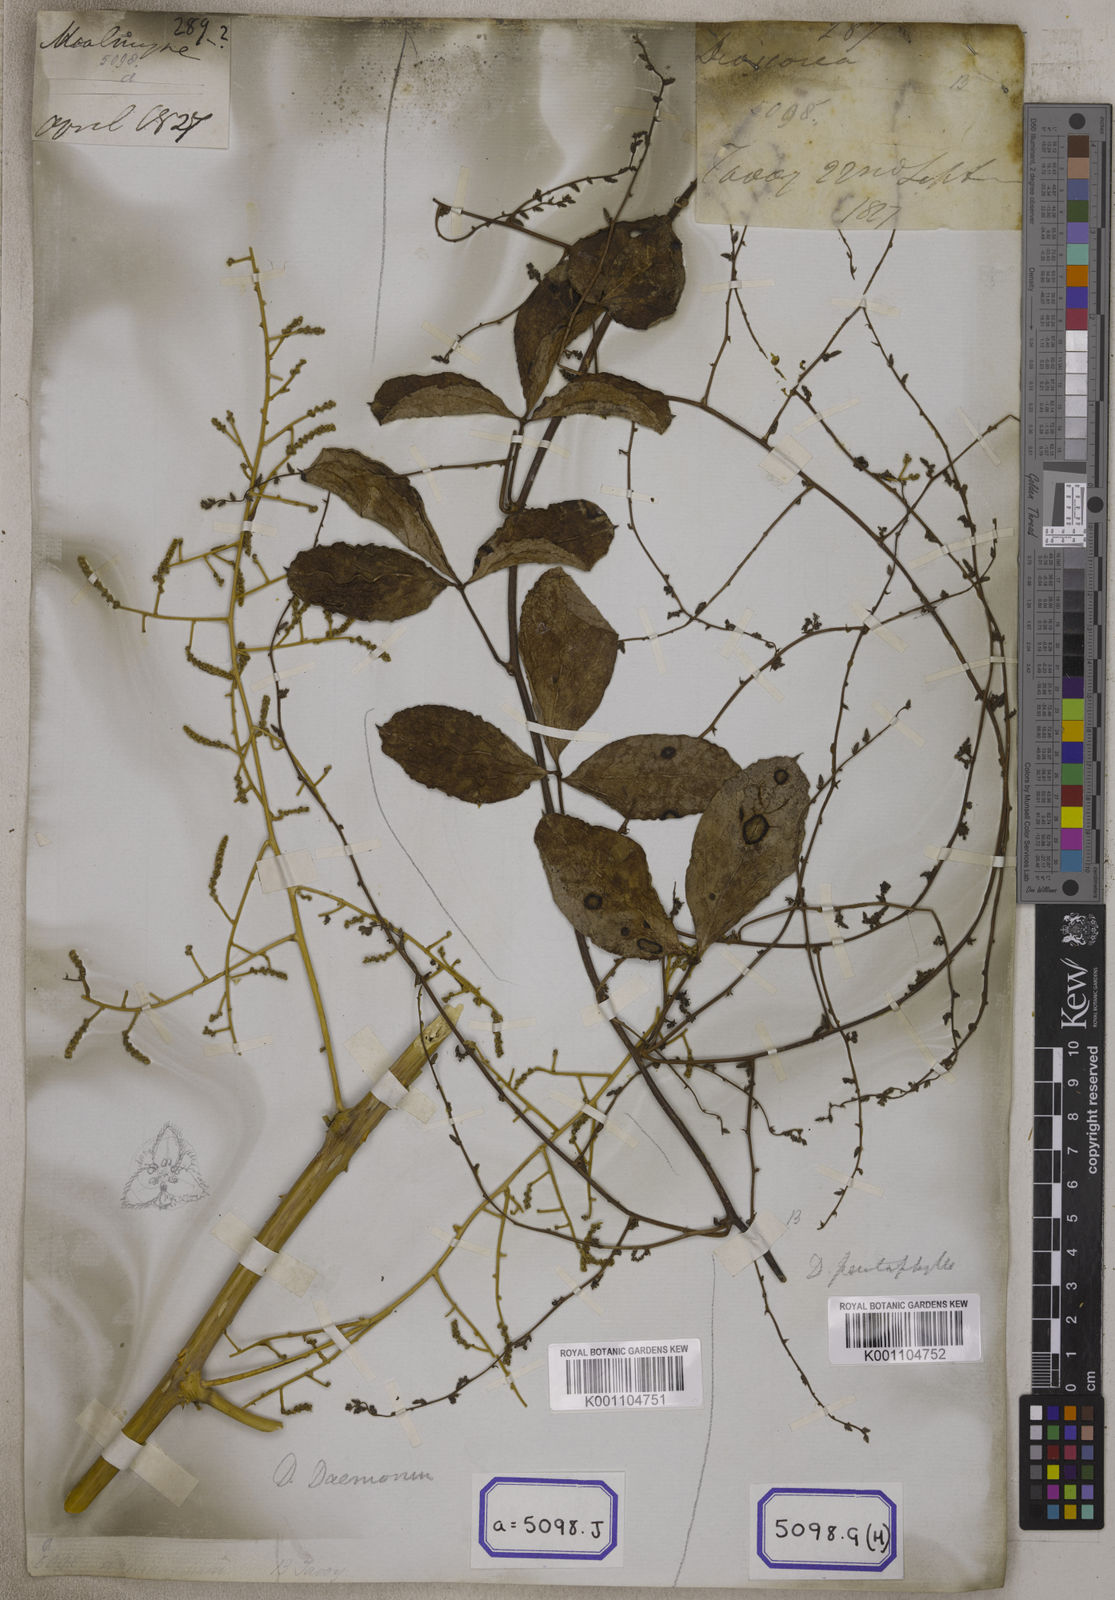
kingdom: Plantae
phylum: Tracheophyta
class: Liliopsida
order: Dioscoreales
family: Dioscoreaceae
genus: Dioscorea
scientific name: Dioscorea
